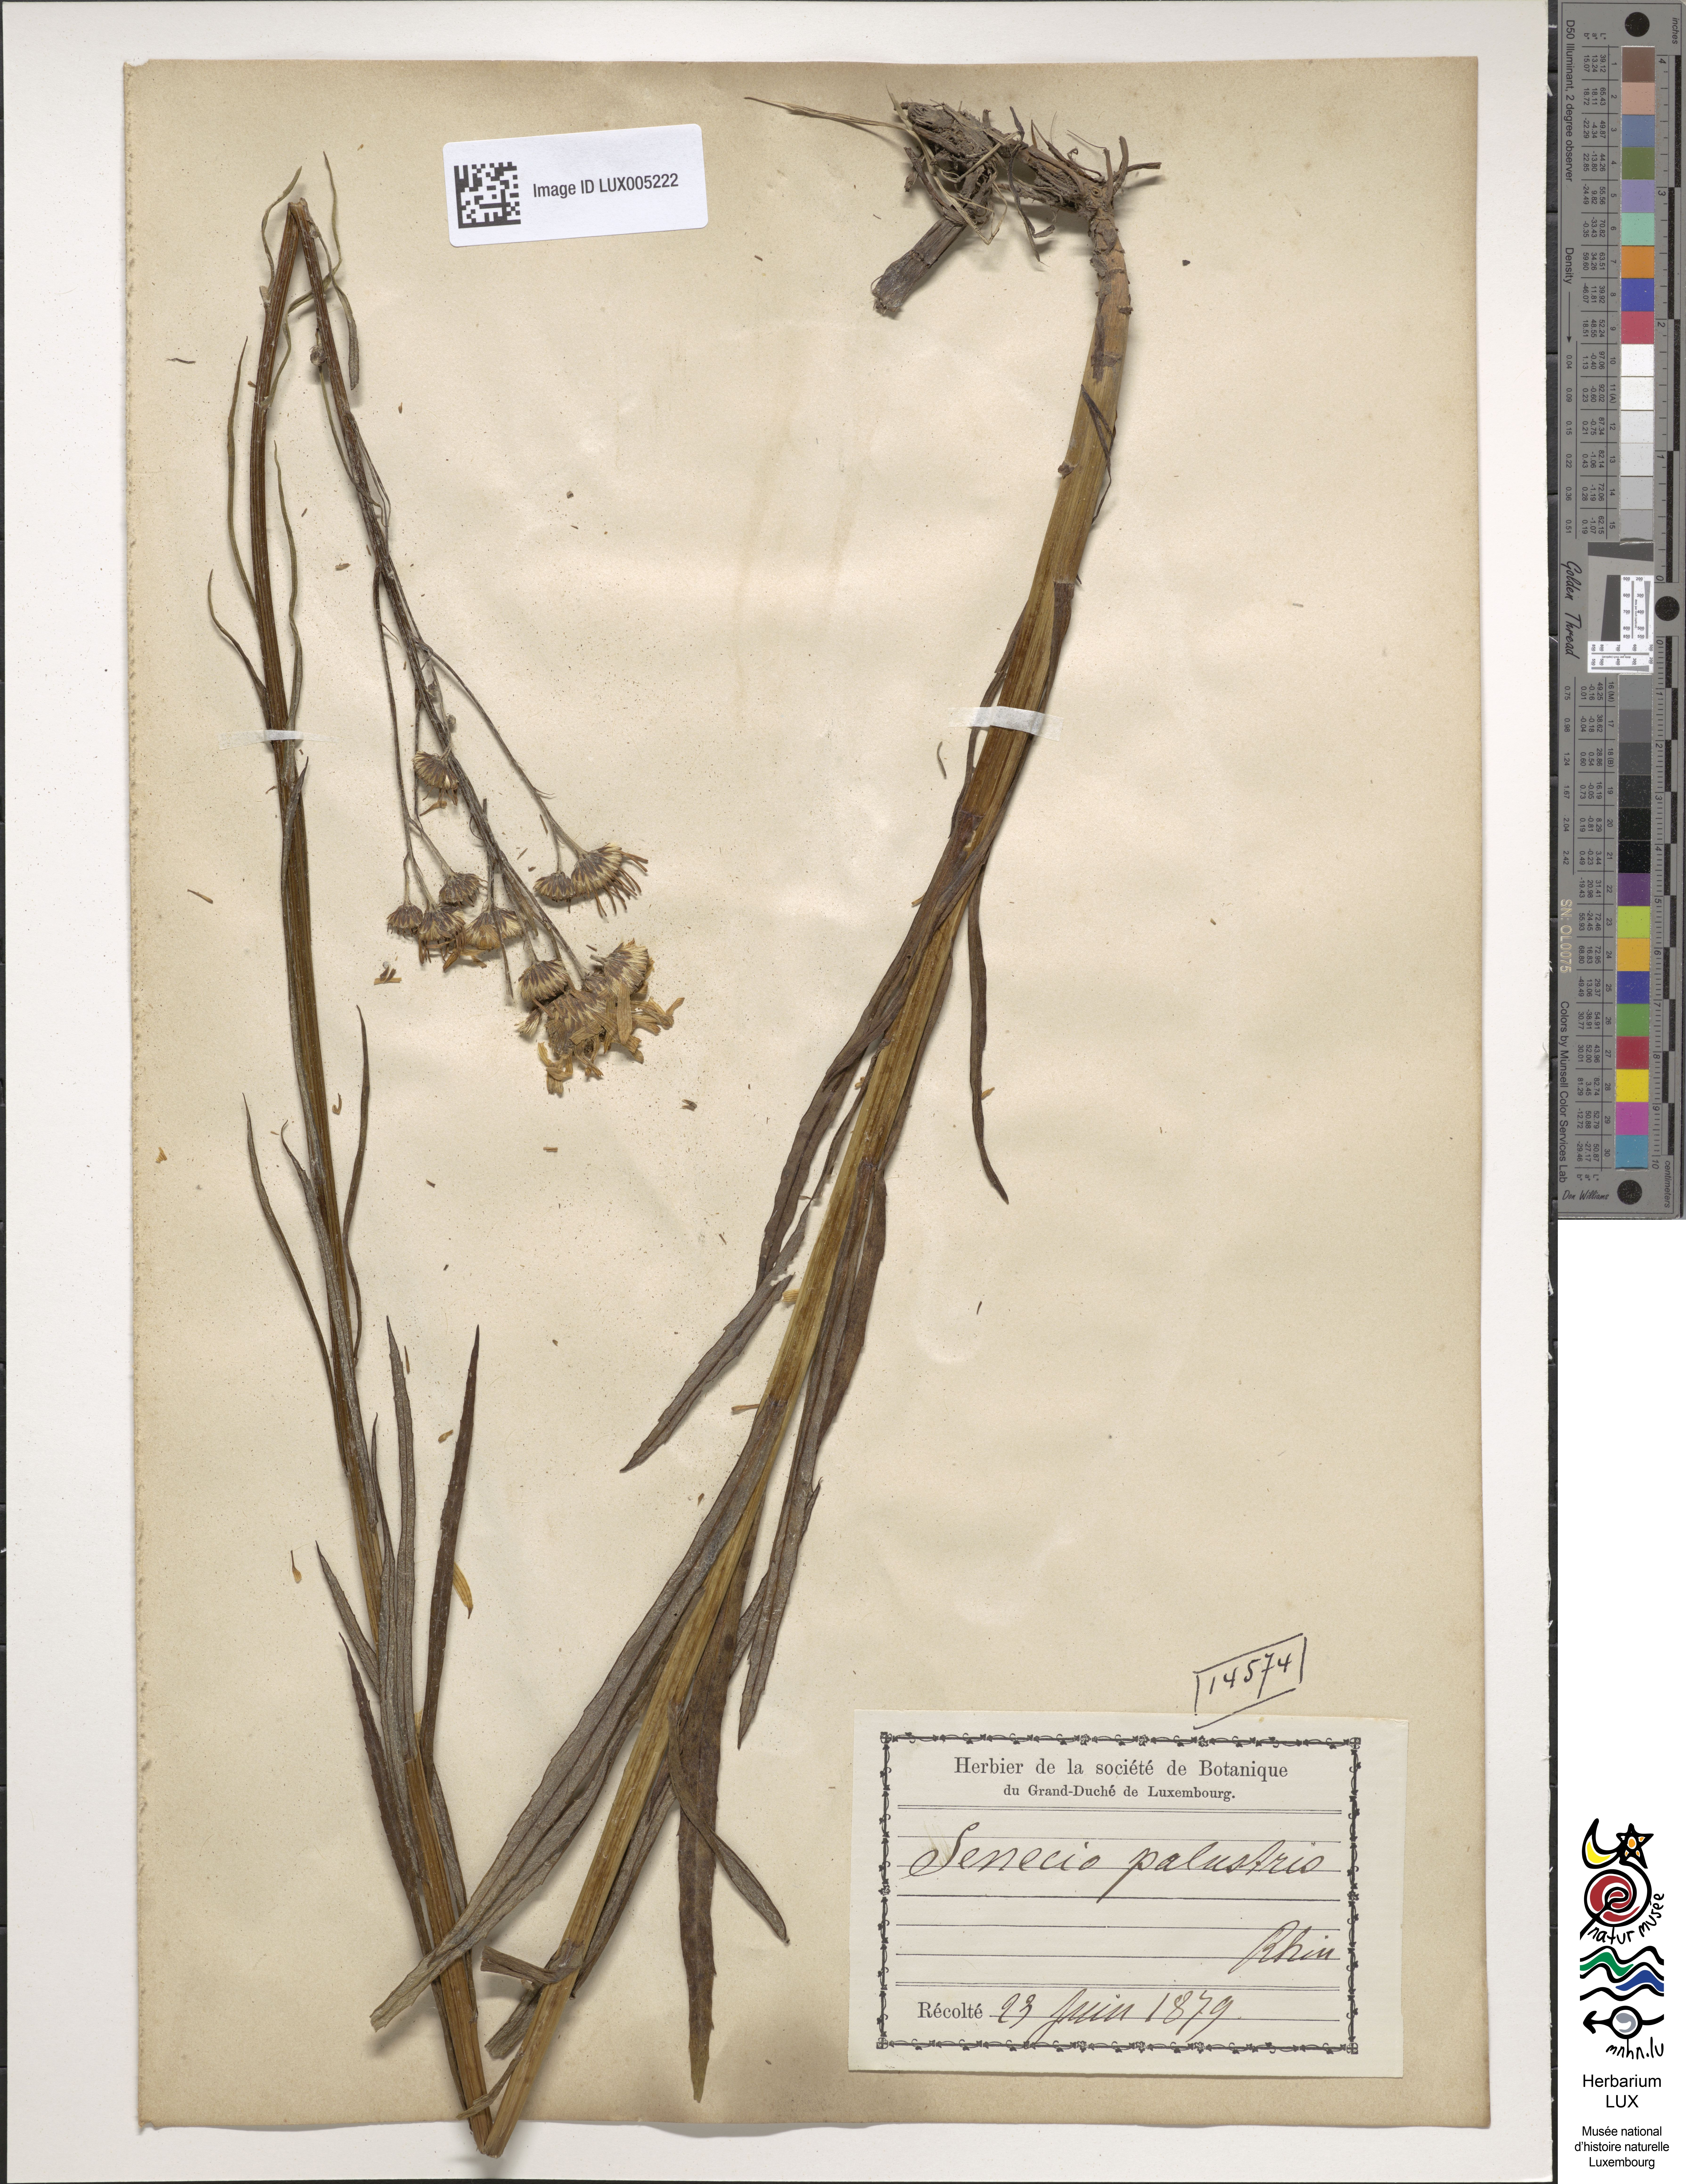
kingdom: Plantae
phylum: Tracheophyta
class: Magnoliopsida
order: Asterales
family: Asteraceae
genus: Tephroseris
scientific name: Tephroseris palustris
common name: Marsh fleawort
